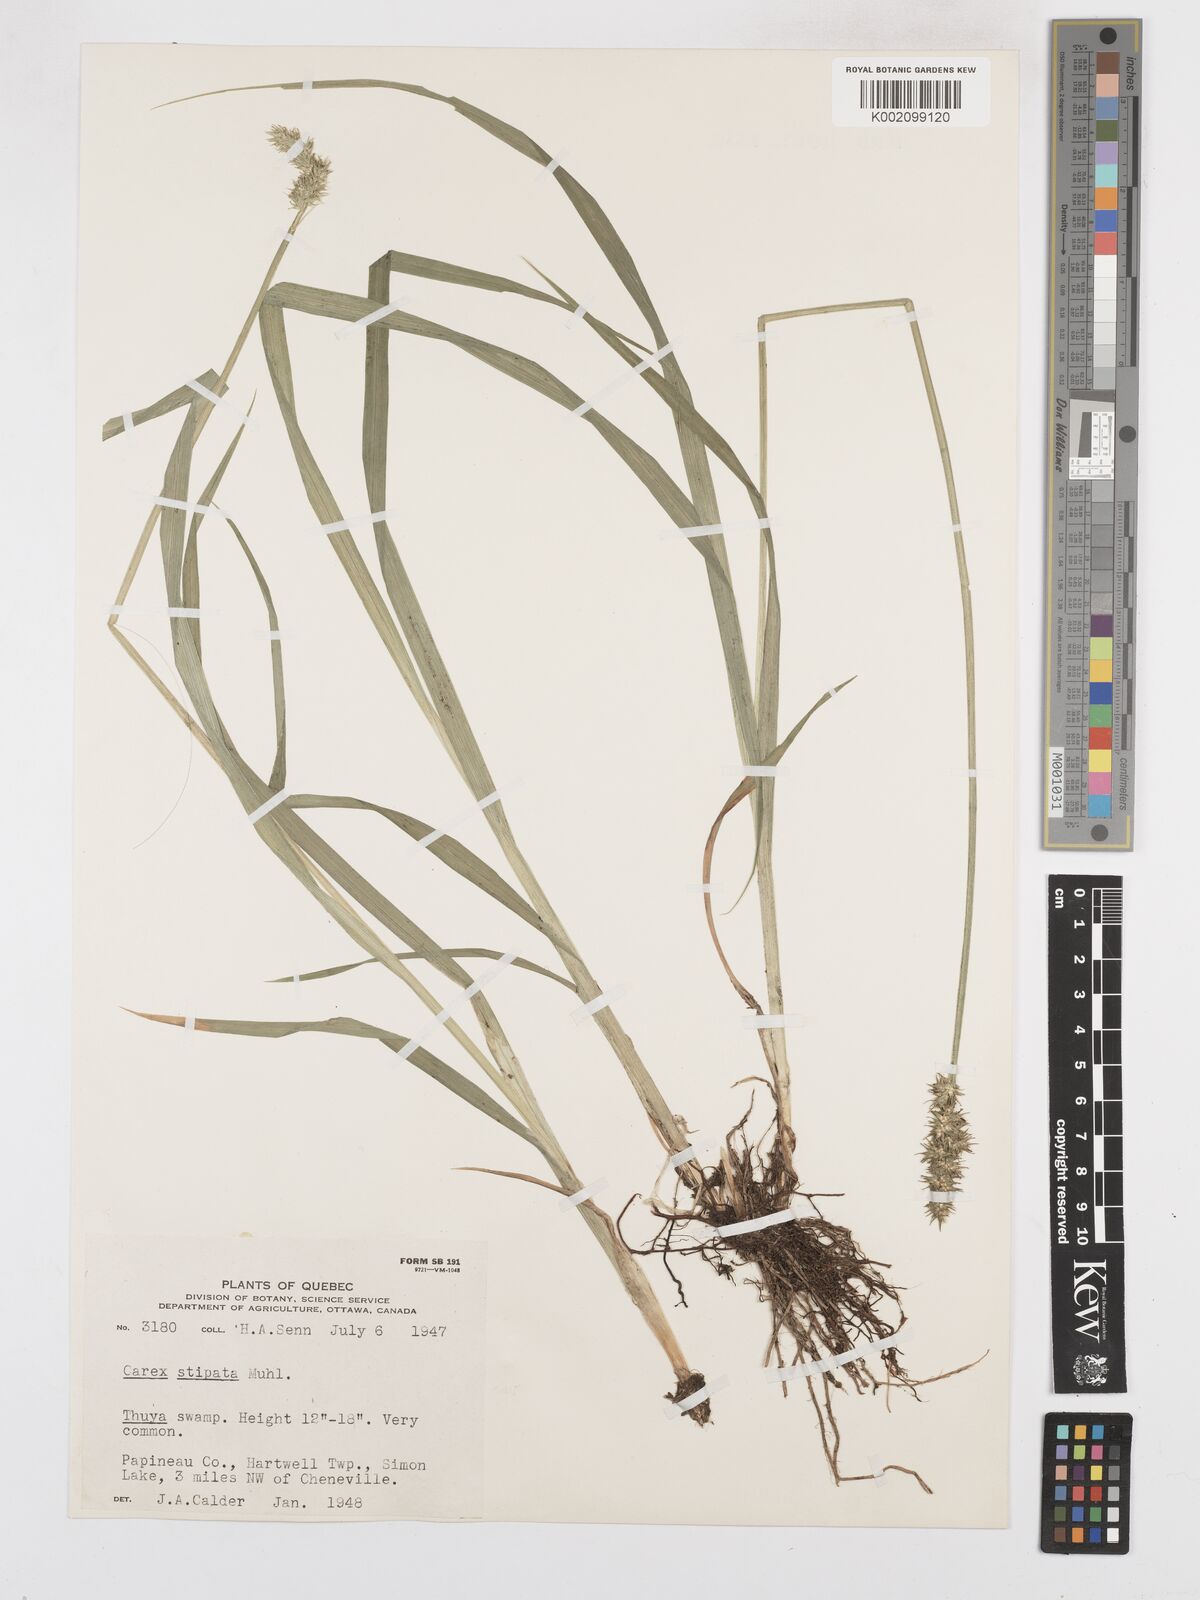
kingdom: Plantae
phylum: Tracheophyta
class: Liliopsida
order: Poales
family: Cyperaceae
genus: Carex
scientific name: Carex stipata
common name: Awl-fruited sedge
